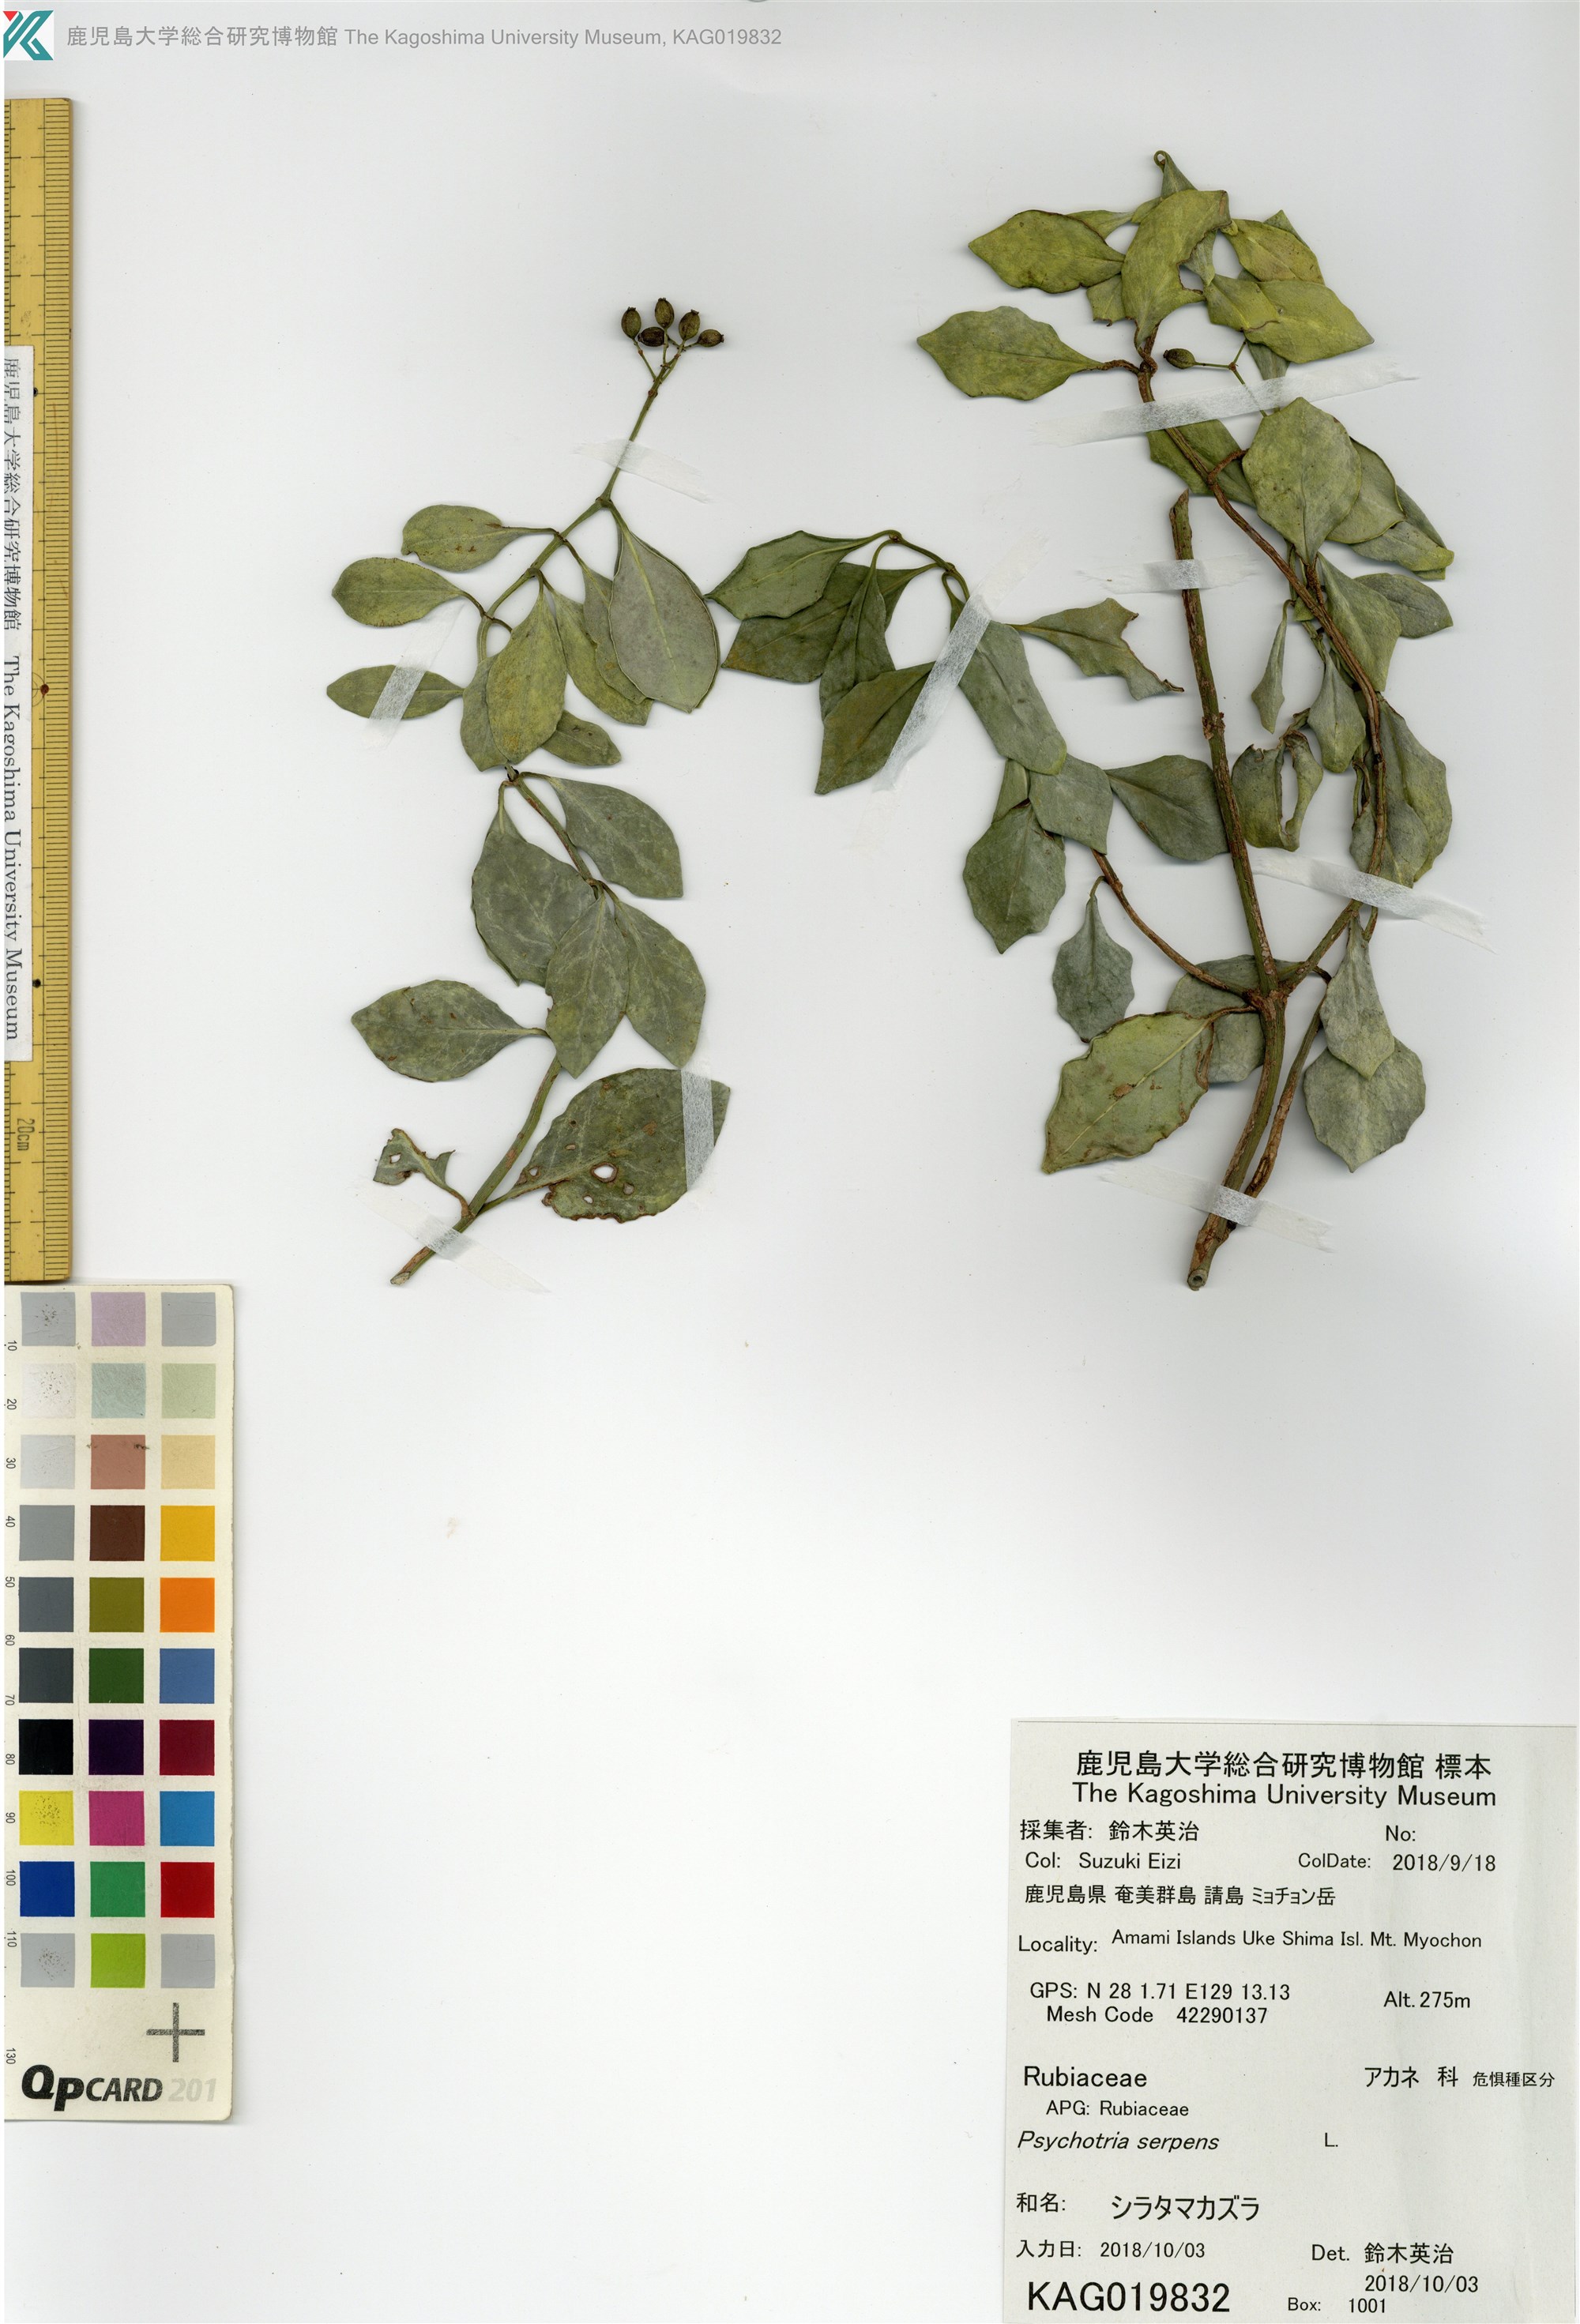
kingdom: Plantae
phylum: Tracheophyta
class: Magnoliopsida
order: Gentianales
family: Rubiaceae
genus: Psychotria
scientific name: Psychotria serpens
